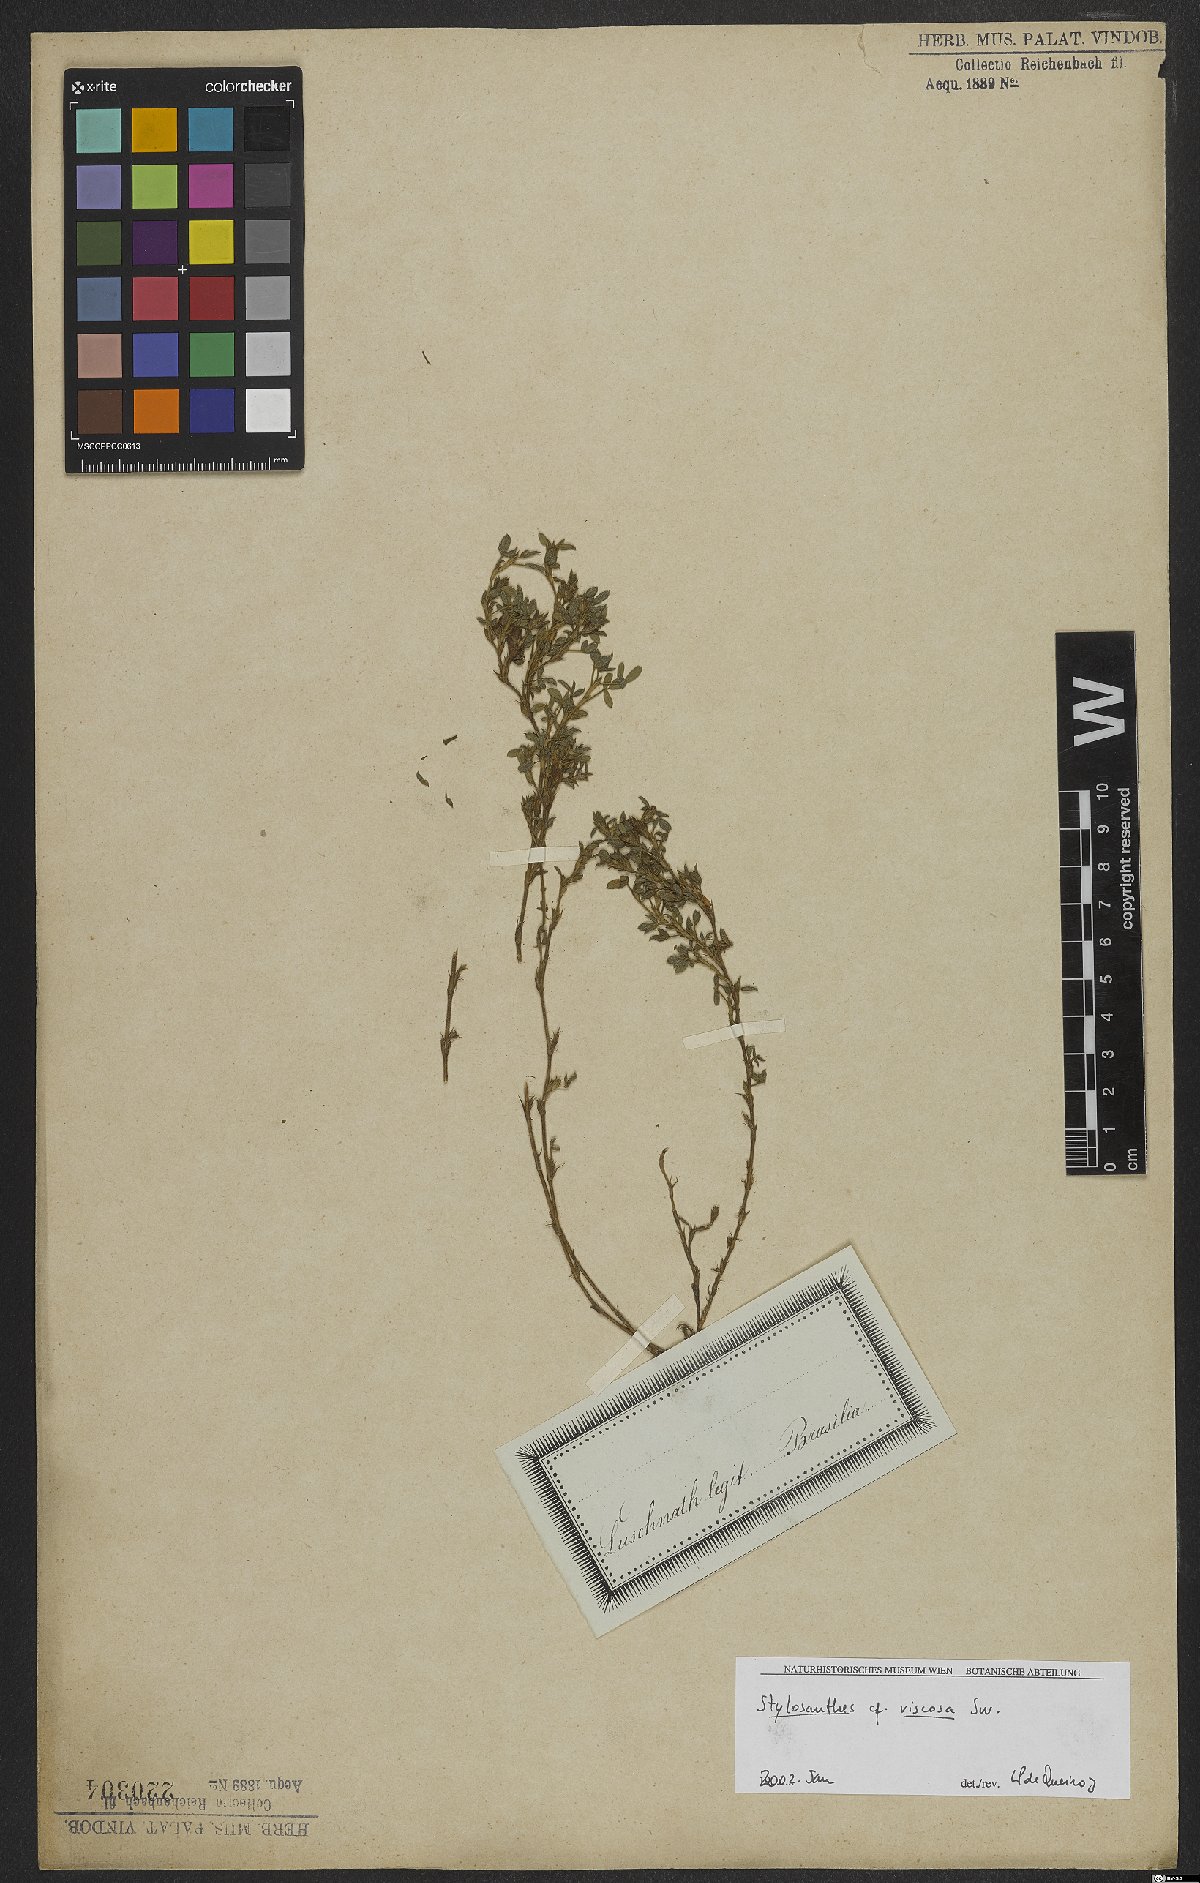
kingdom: Plantae
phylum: Tracheophyta
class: Magnoliopsida
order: Fabales
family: Fabaceae
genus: Stylosanthes
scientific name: Stylosanthes viscosa
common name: Viscid pencil-flower
